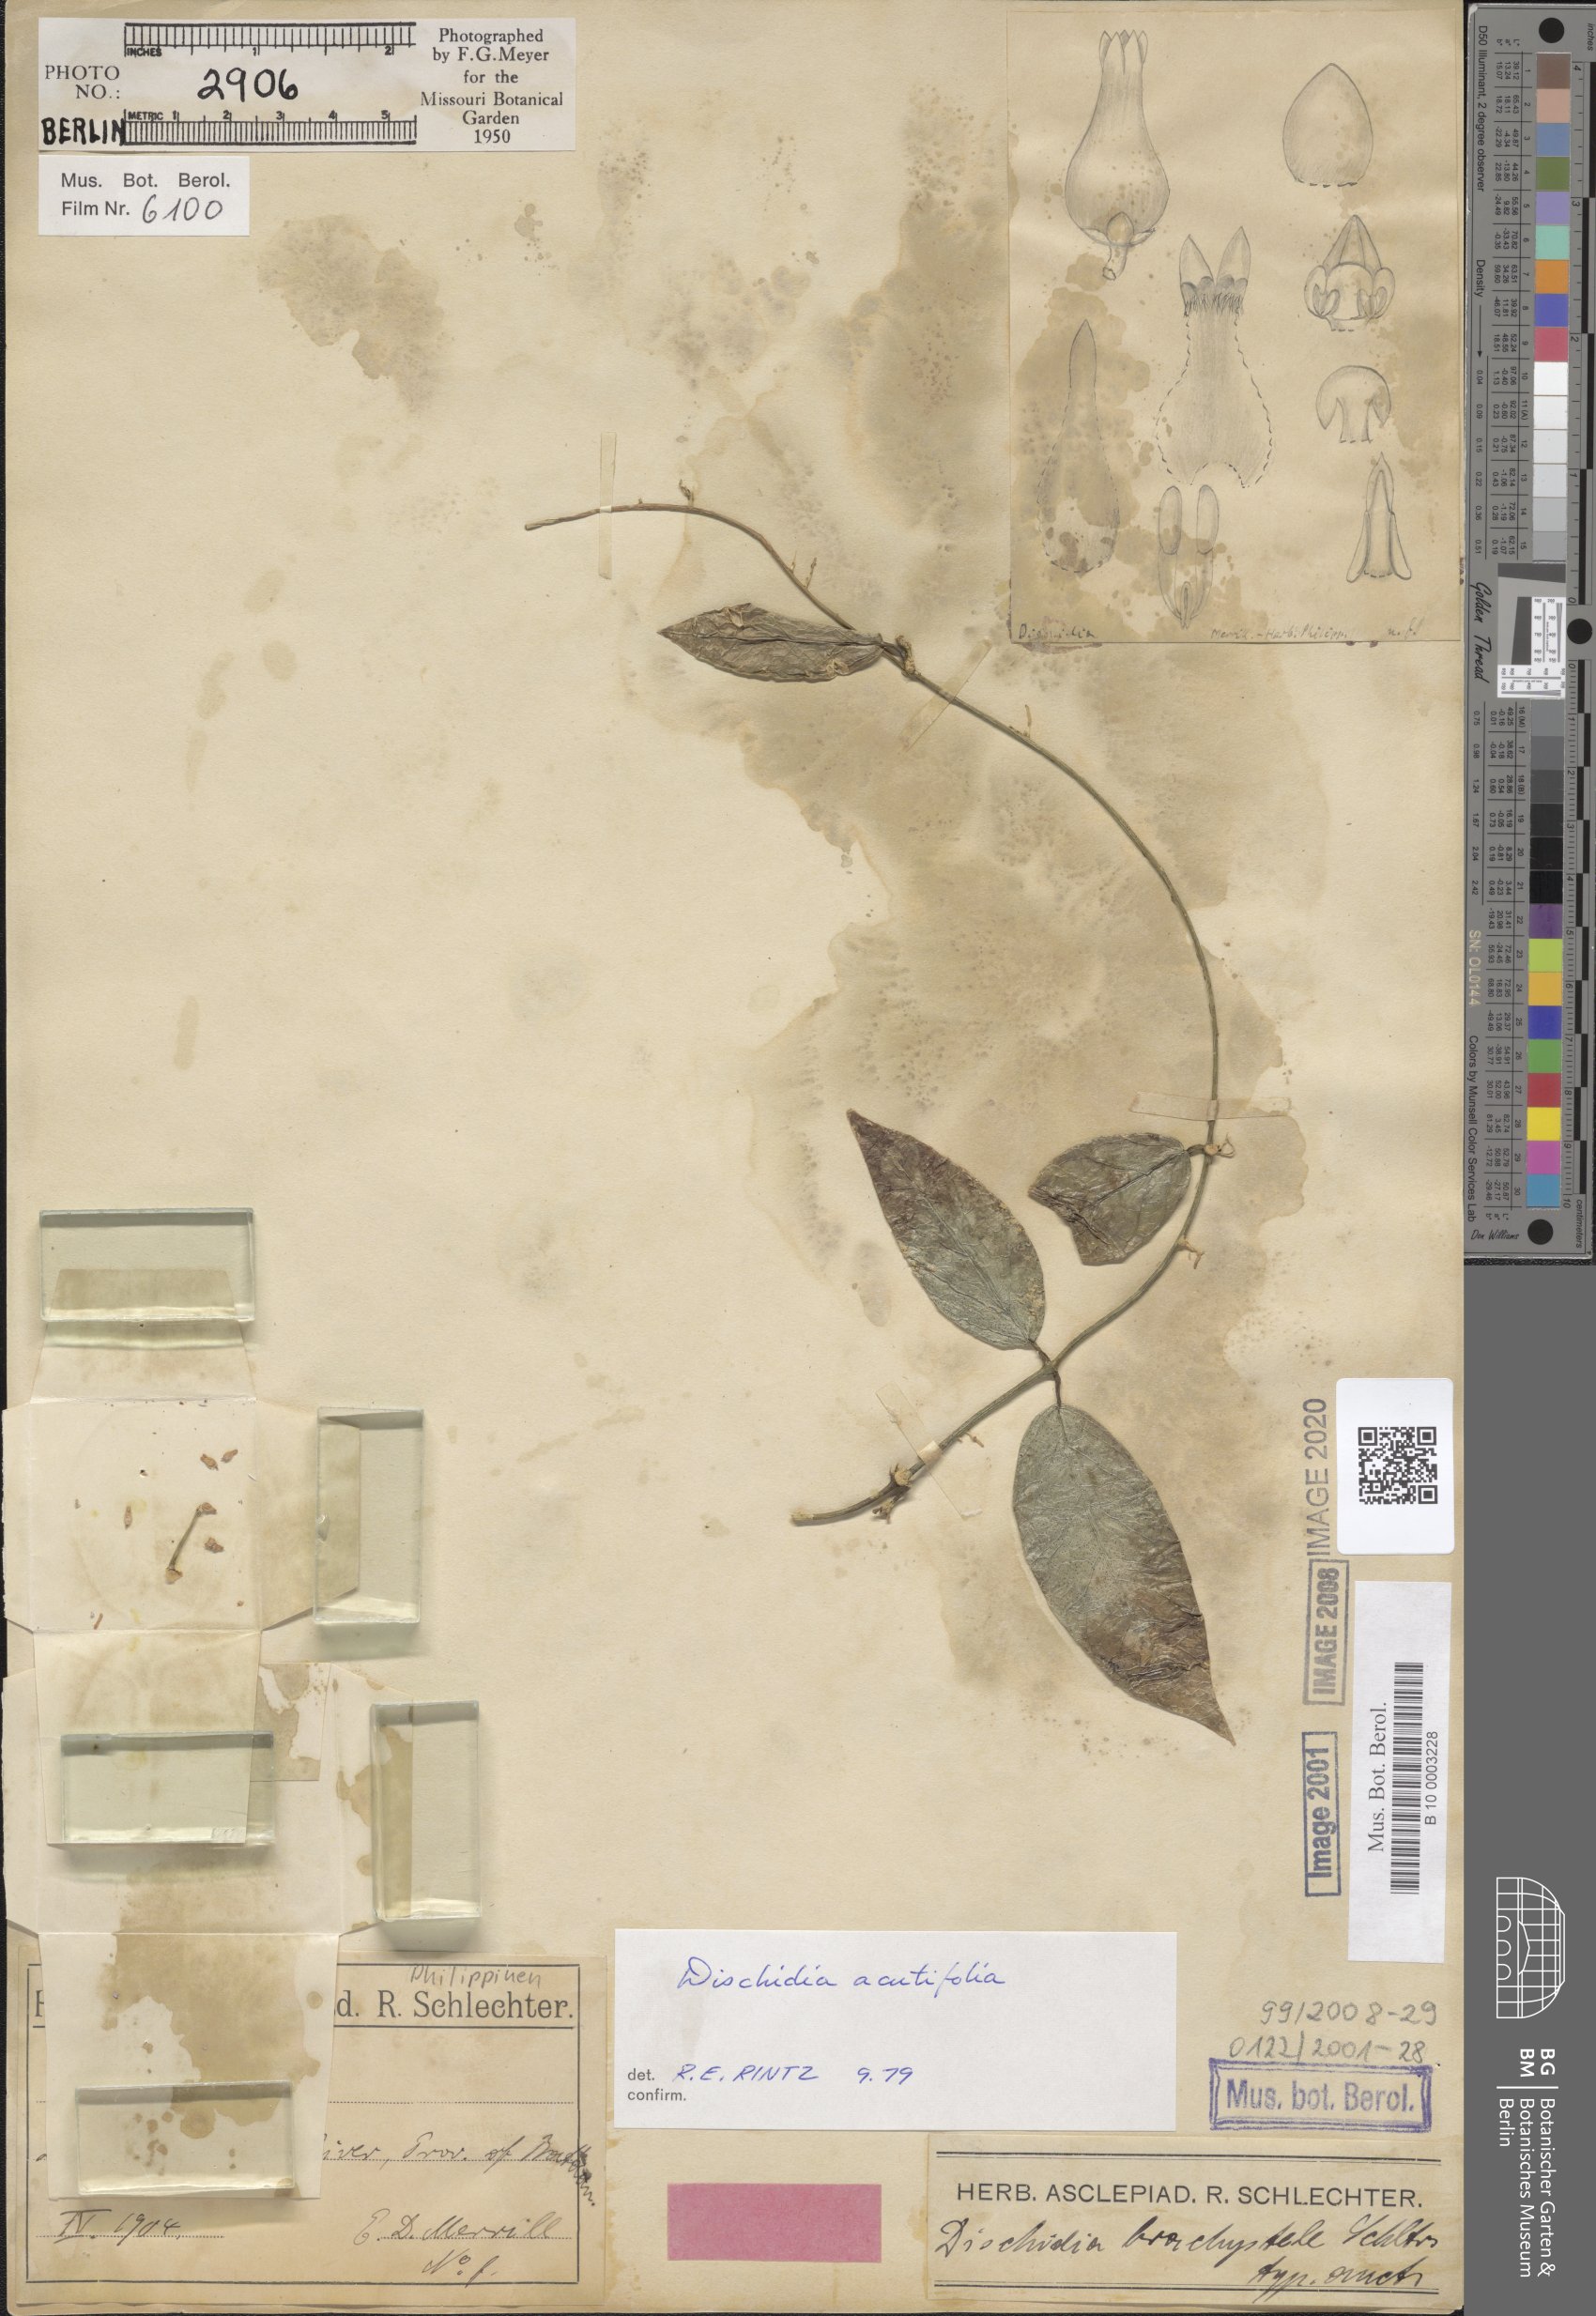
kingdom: Plantae
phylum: Tracheophyta
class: Magnoliopsida
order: Gentianales
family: Apocynaceae
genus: Dischidia
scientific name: Dischidia acutifolia
